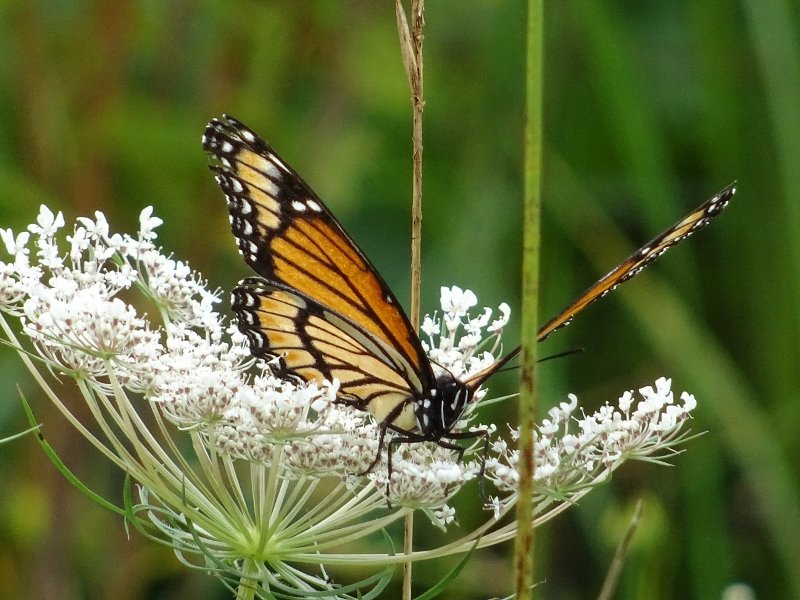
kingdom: Animalia
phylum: Arthropoda
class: Insecta
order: Lepidoptera
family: Nymphalidae
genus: Limenitis
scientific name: Limenitis archippus
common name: Viceroy
